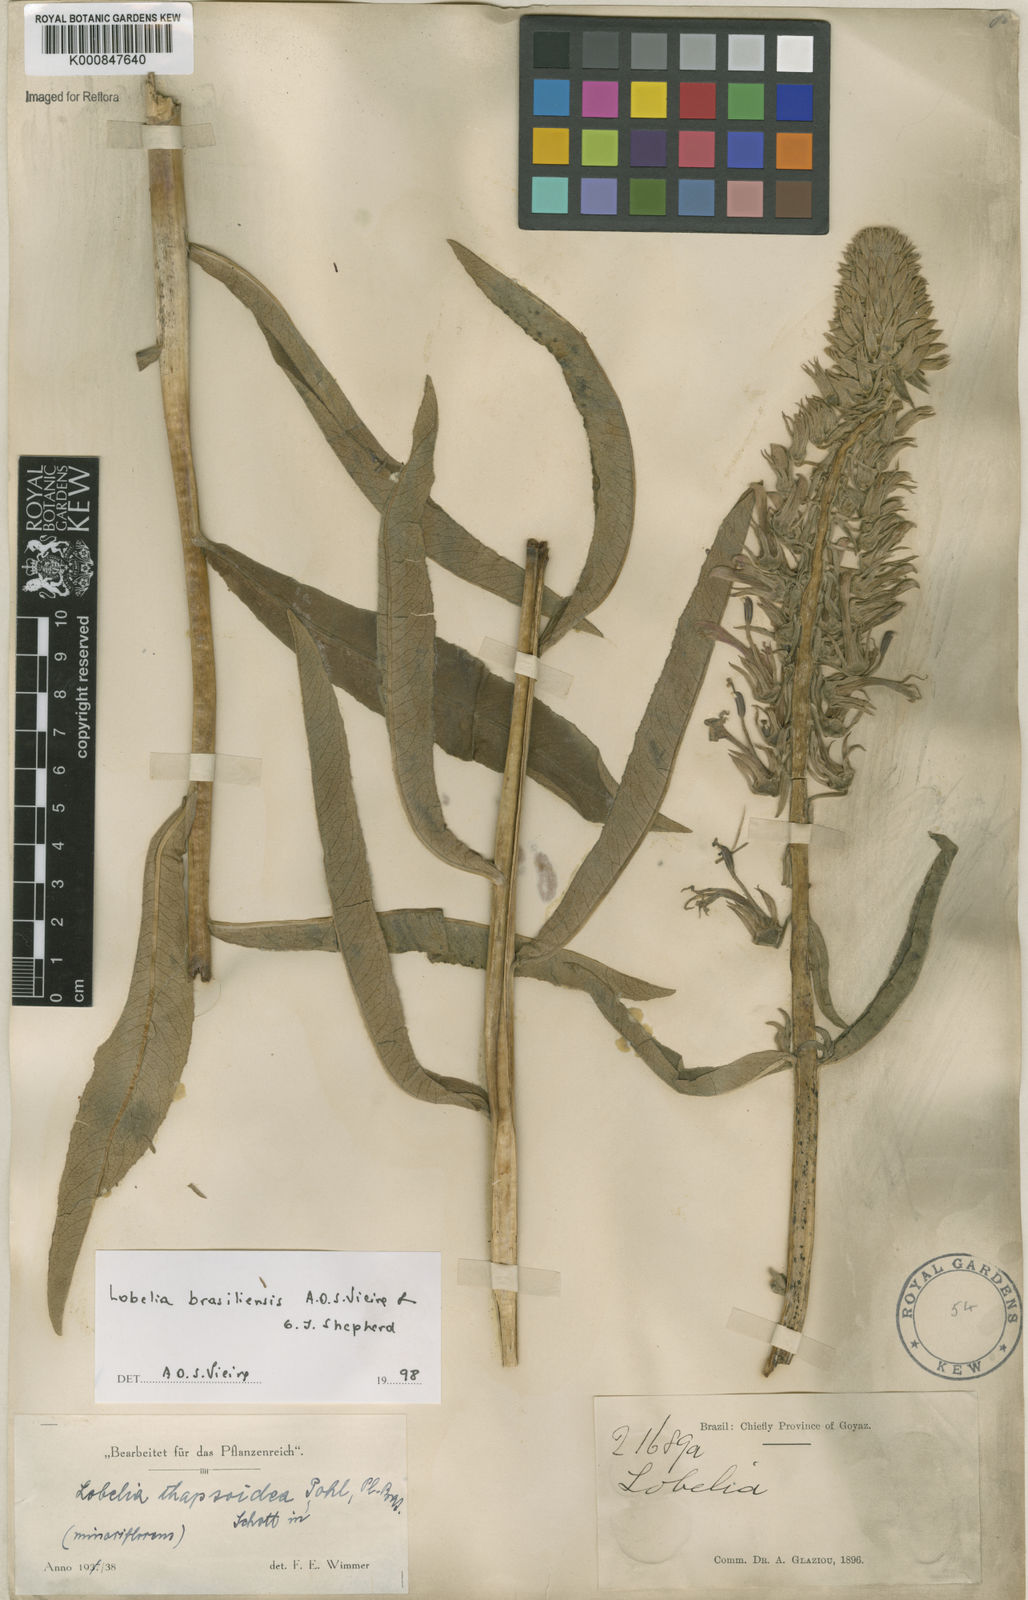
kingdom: Plantae
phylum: Tracheophyta
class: Magnoliopsida
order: Asterales
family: Campanulaceae
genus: Lobelia
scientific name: Lobelia brasiliensis
